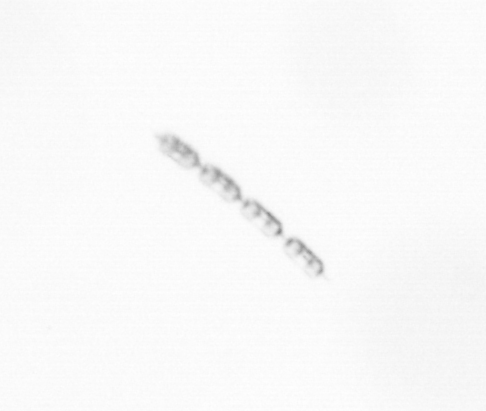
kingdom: Chromista
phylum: Ochrophyta
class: Bacillariophyceae
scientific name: Bacillariophyceae
